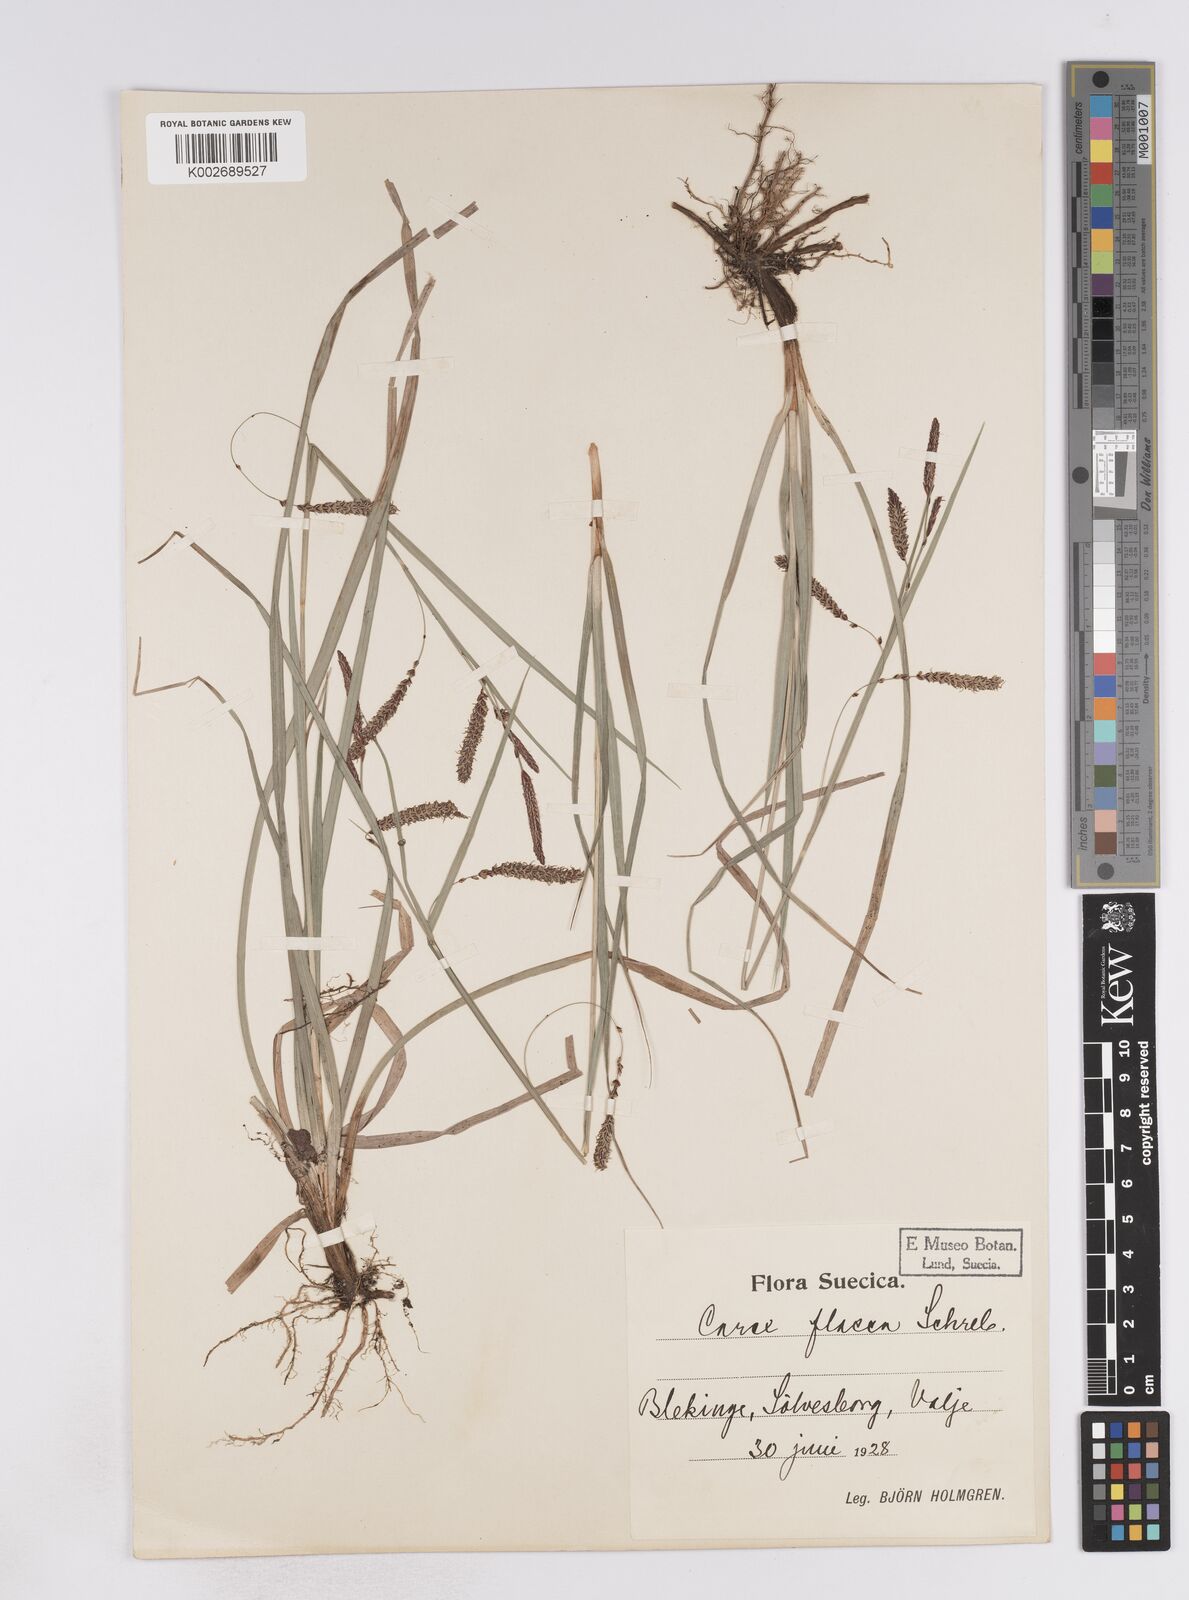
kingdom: Plantae
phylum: Tracheophyta
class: Liliopsida
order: Poales
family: Cyperaceae
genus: Carex
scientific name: Carex flacca
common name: Glaucous sedge
